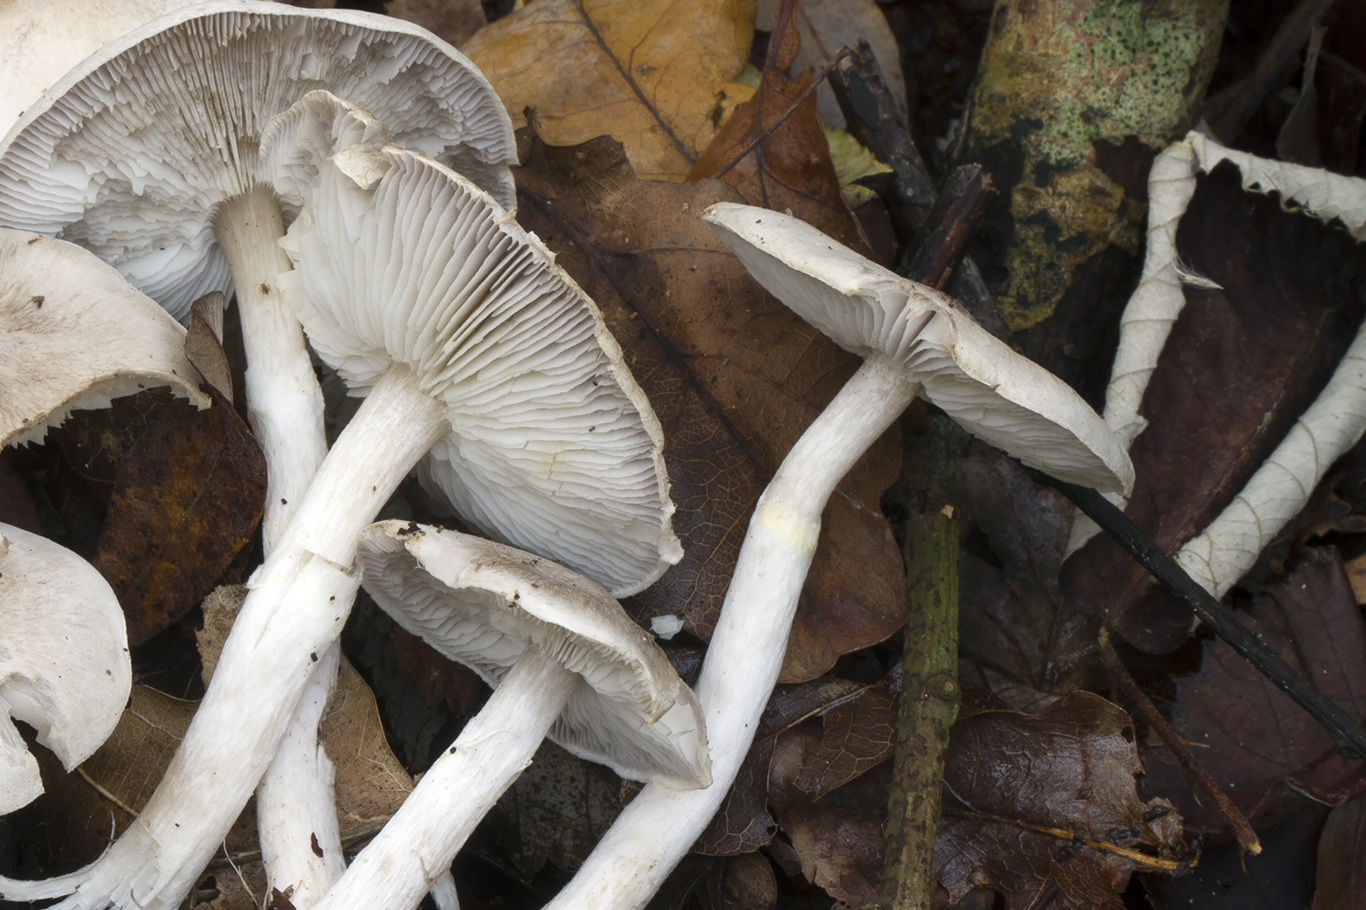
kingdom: Fungi
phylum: Basidiomycota
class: Agaricomycetes
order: Agaricales
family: Tricholomataceae
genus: Tricholoma
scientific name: Tricholoma cingulatum
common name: ring-ridderhat
